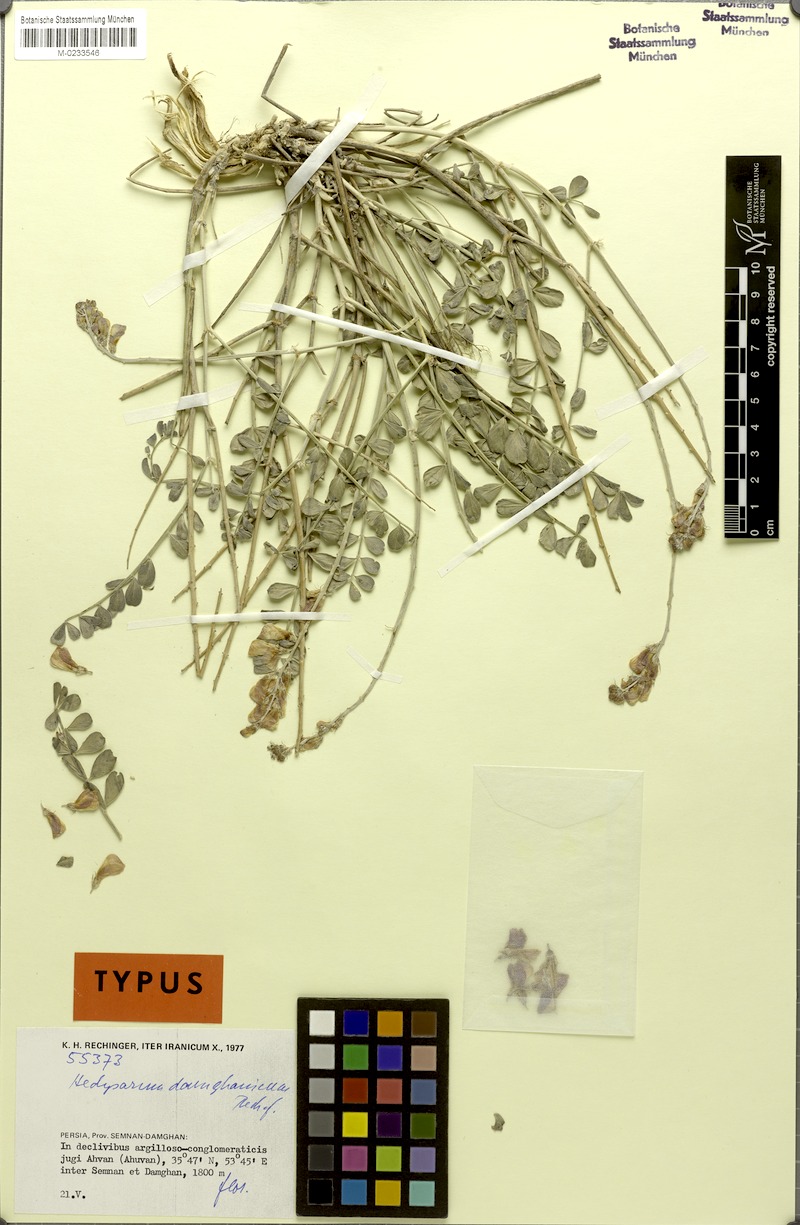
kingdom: Plantae
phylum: Tracheophyta
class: Magnoliopsida
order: Fabales
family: Fabaceae
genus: Hedysarum
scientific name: Hedysarum damghanicum
